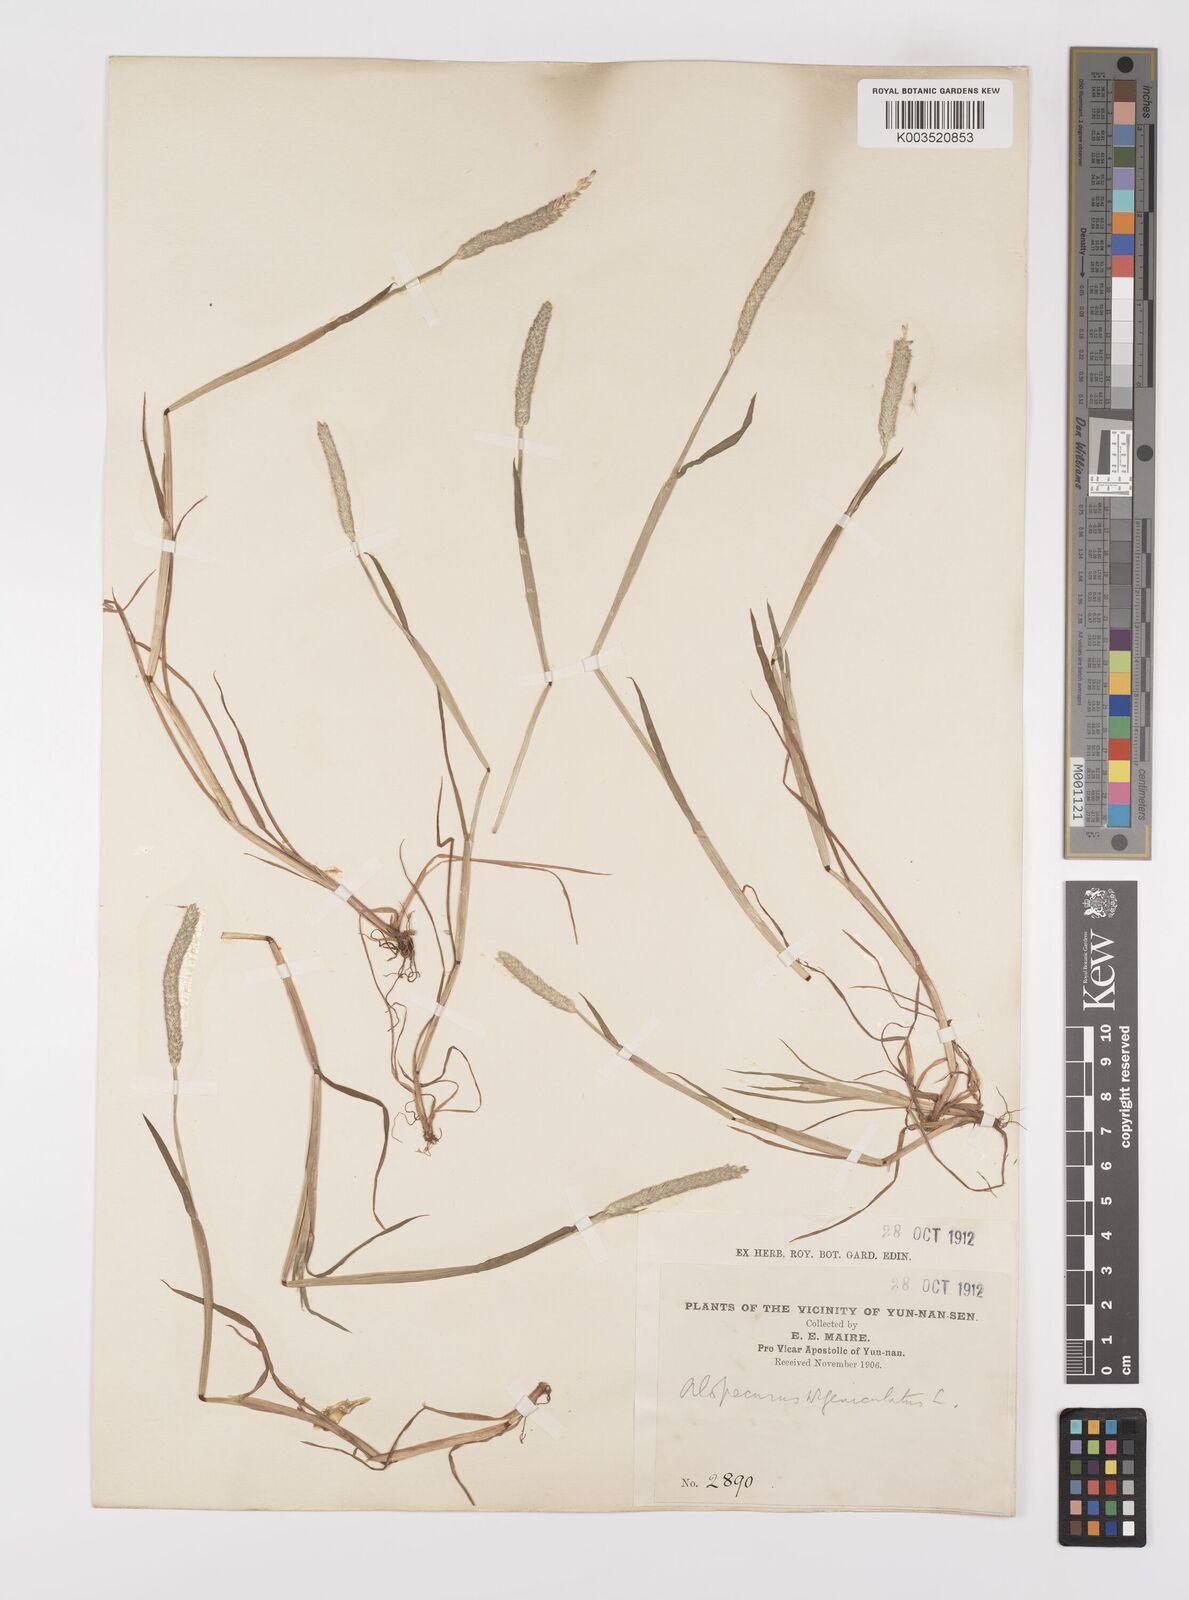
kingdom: Plantae
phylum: Tracheophyta
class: Liliopsida
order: Poales
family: Poaceae
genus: Alopecurus
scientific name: Alopecurus aequalis
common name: Orange foxtail
